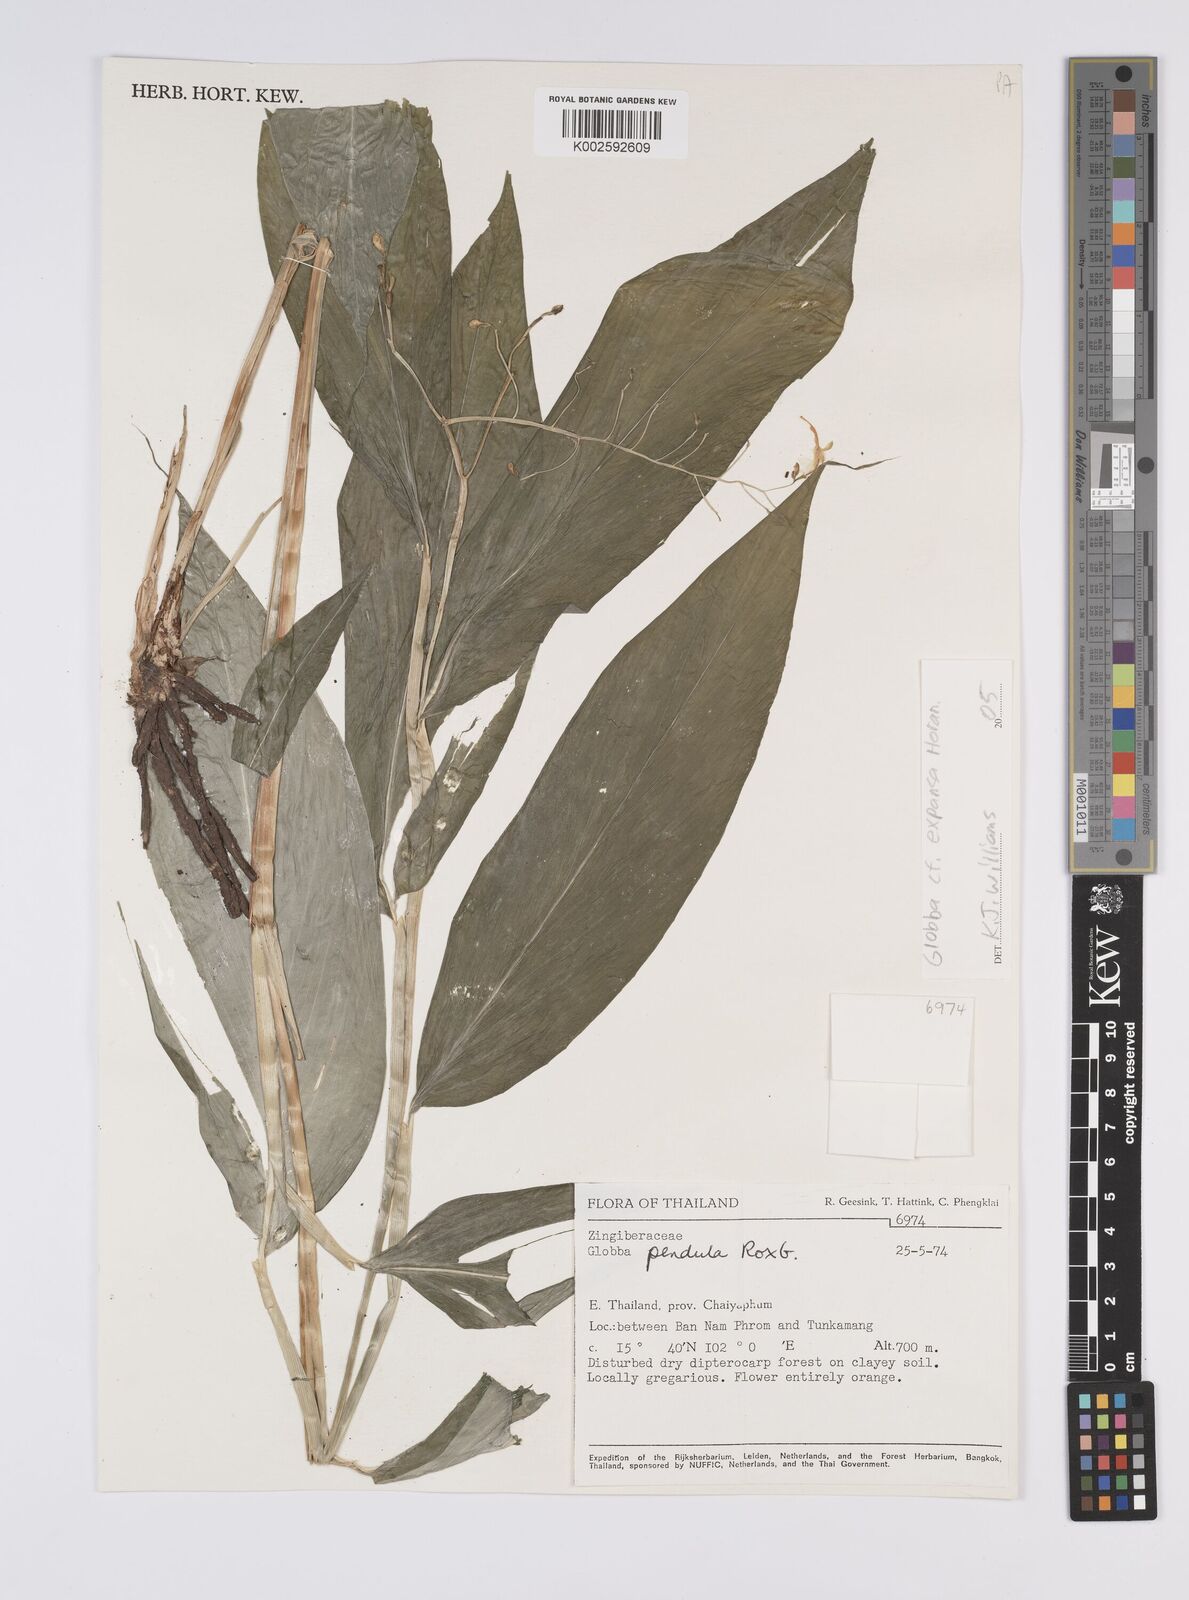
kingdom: Plantae
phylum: Tracheophyta
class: Liliopsida
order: Zingiberales
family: Zingiberaceae
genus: Globba
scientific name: Globba expansa
